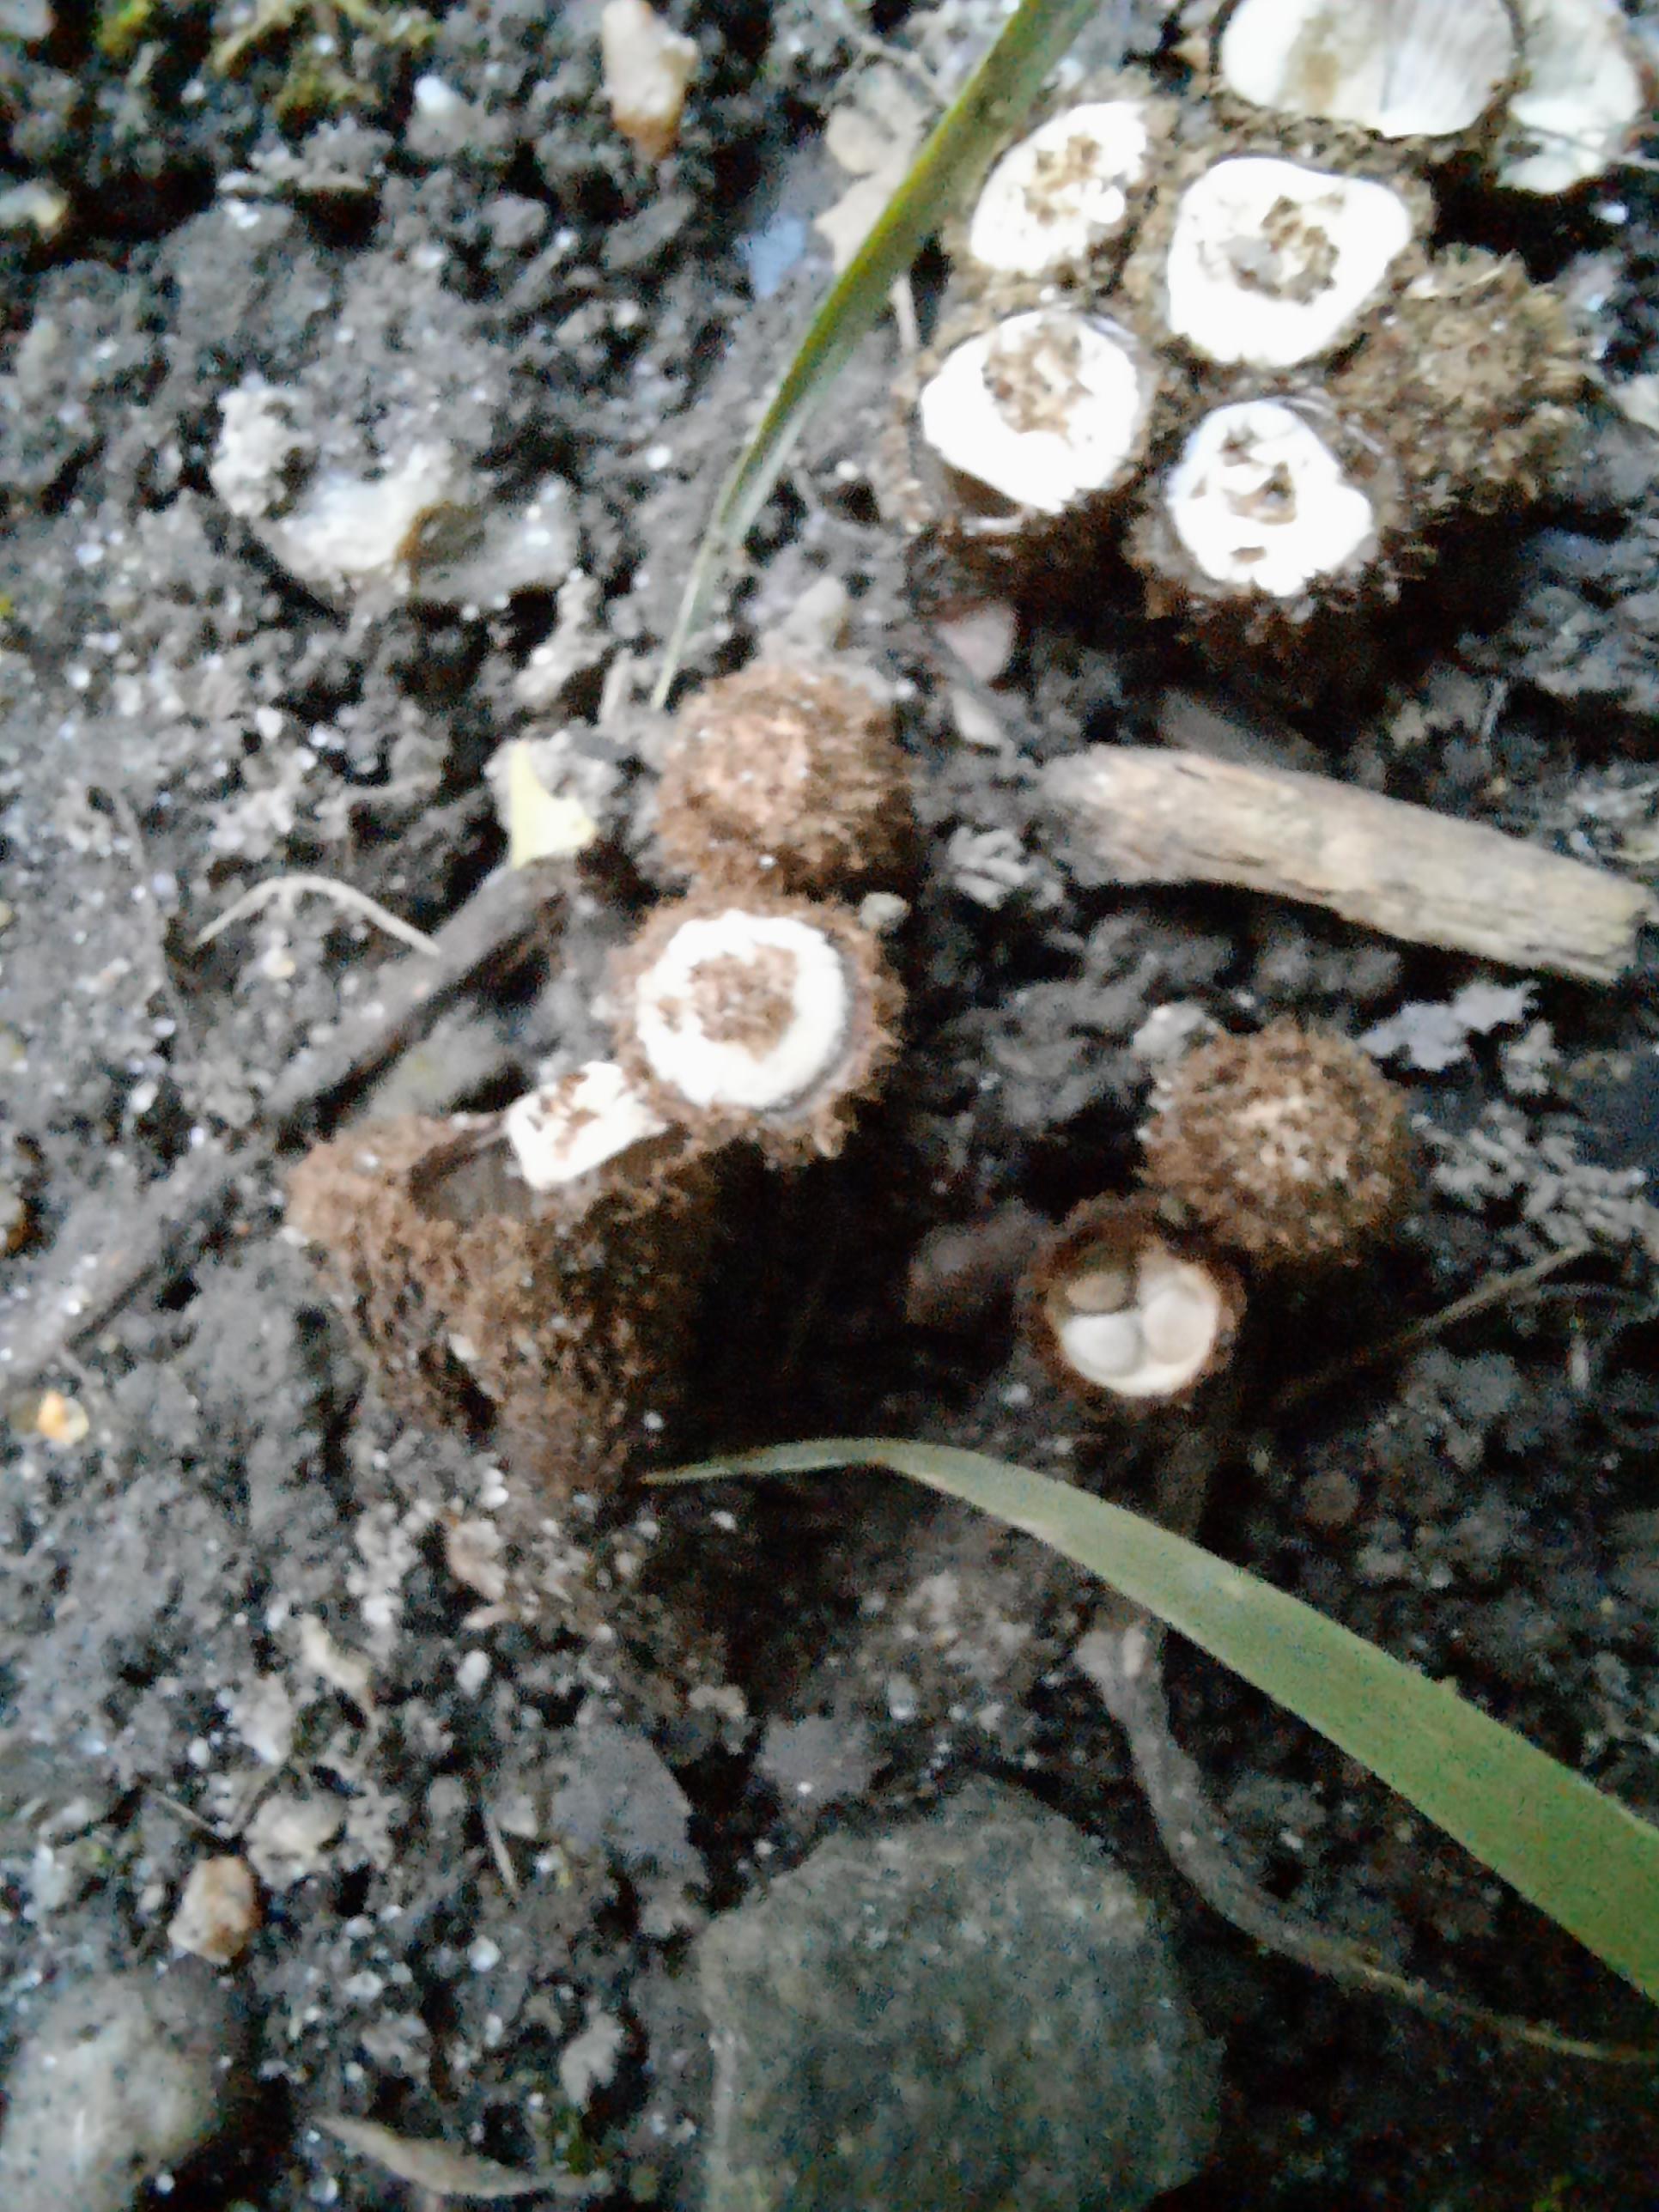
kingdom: Fungi
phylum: Basidiomycota
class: Agaricomycetes
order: Agaricales
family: Agaricaceae
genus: Cyathus
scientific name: Cyathus striatus
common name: stribet redesvamp
